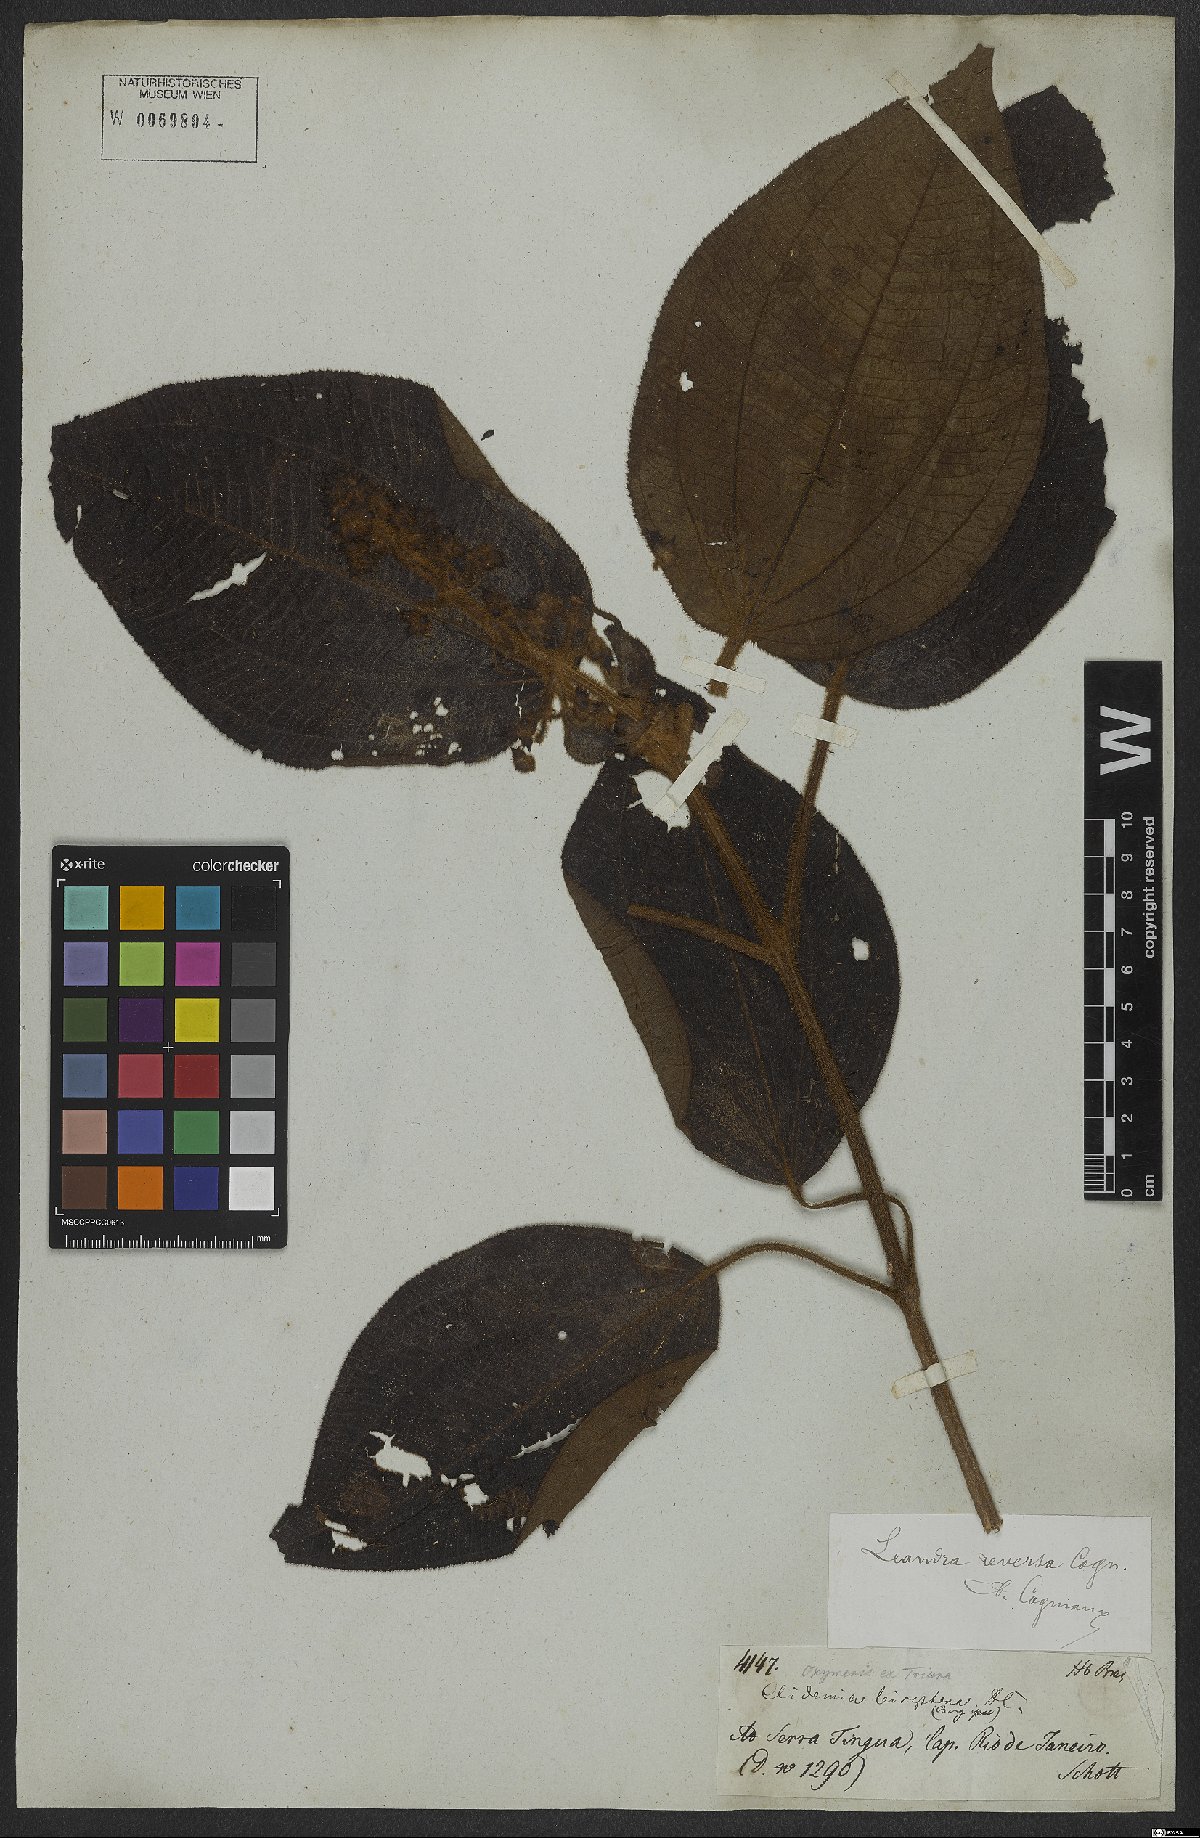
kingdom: Plantae
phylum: Tracheophyta
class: Magnoliopsida
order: Myrtales
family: Melastomataceae
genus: Miconia
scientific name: Miconia reversa
